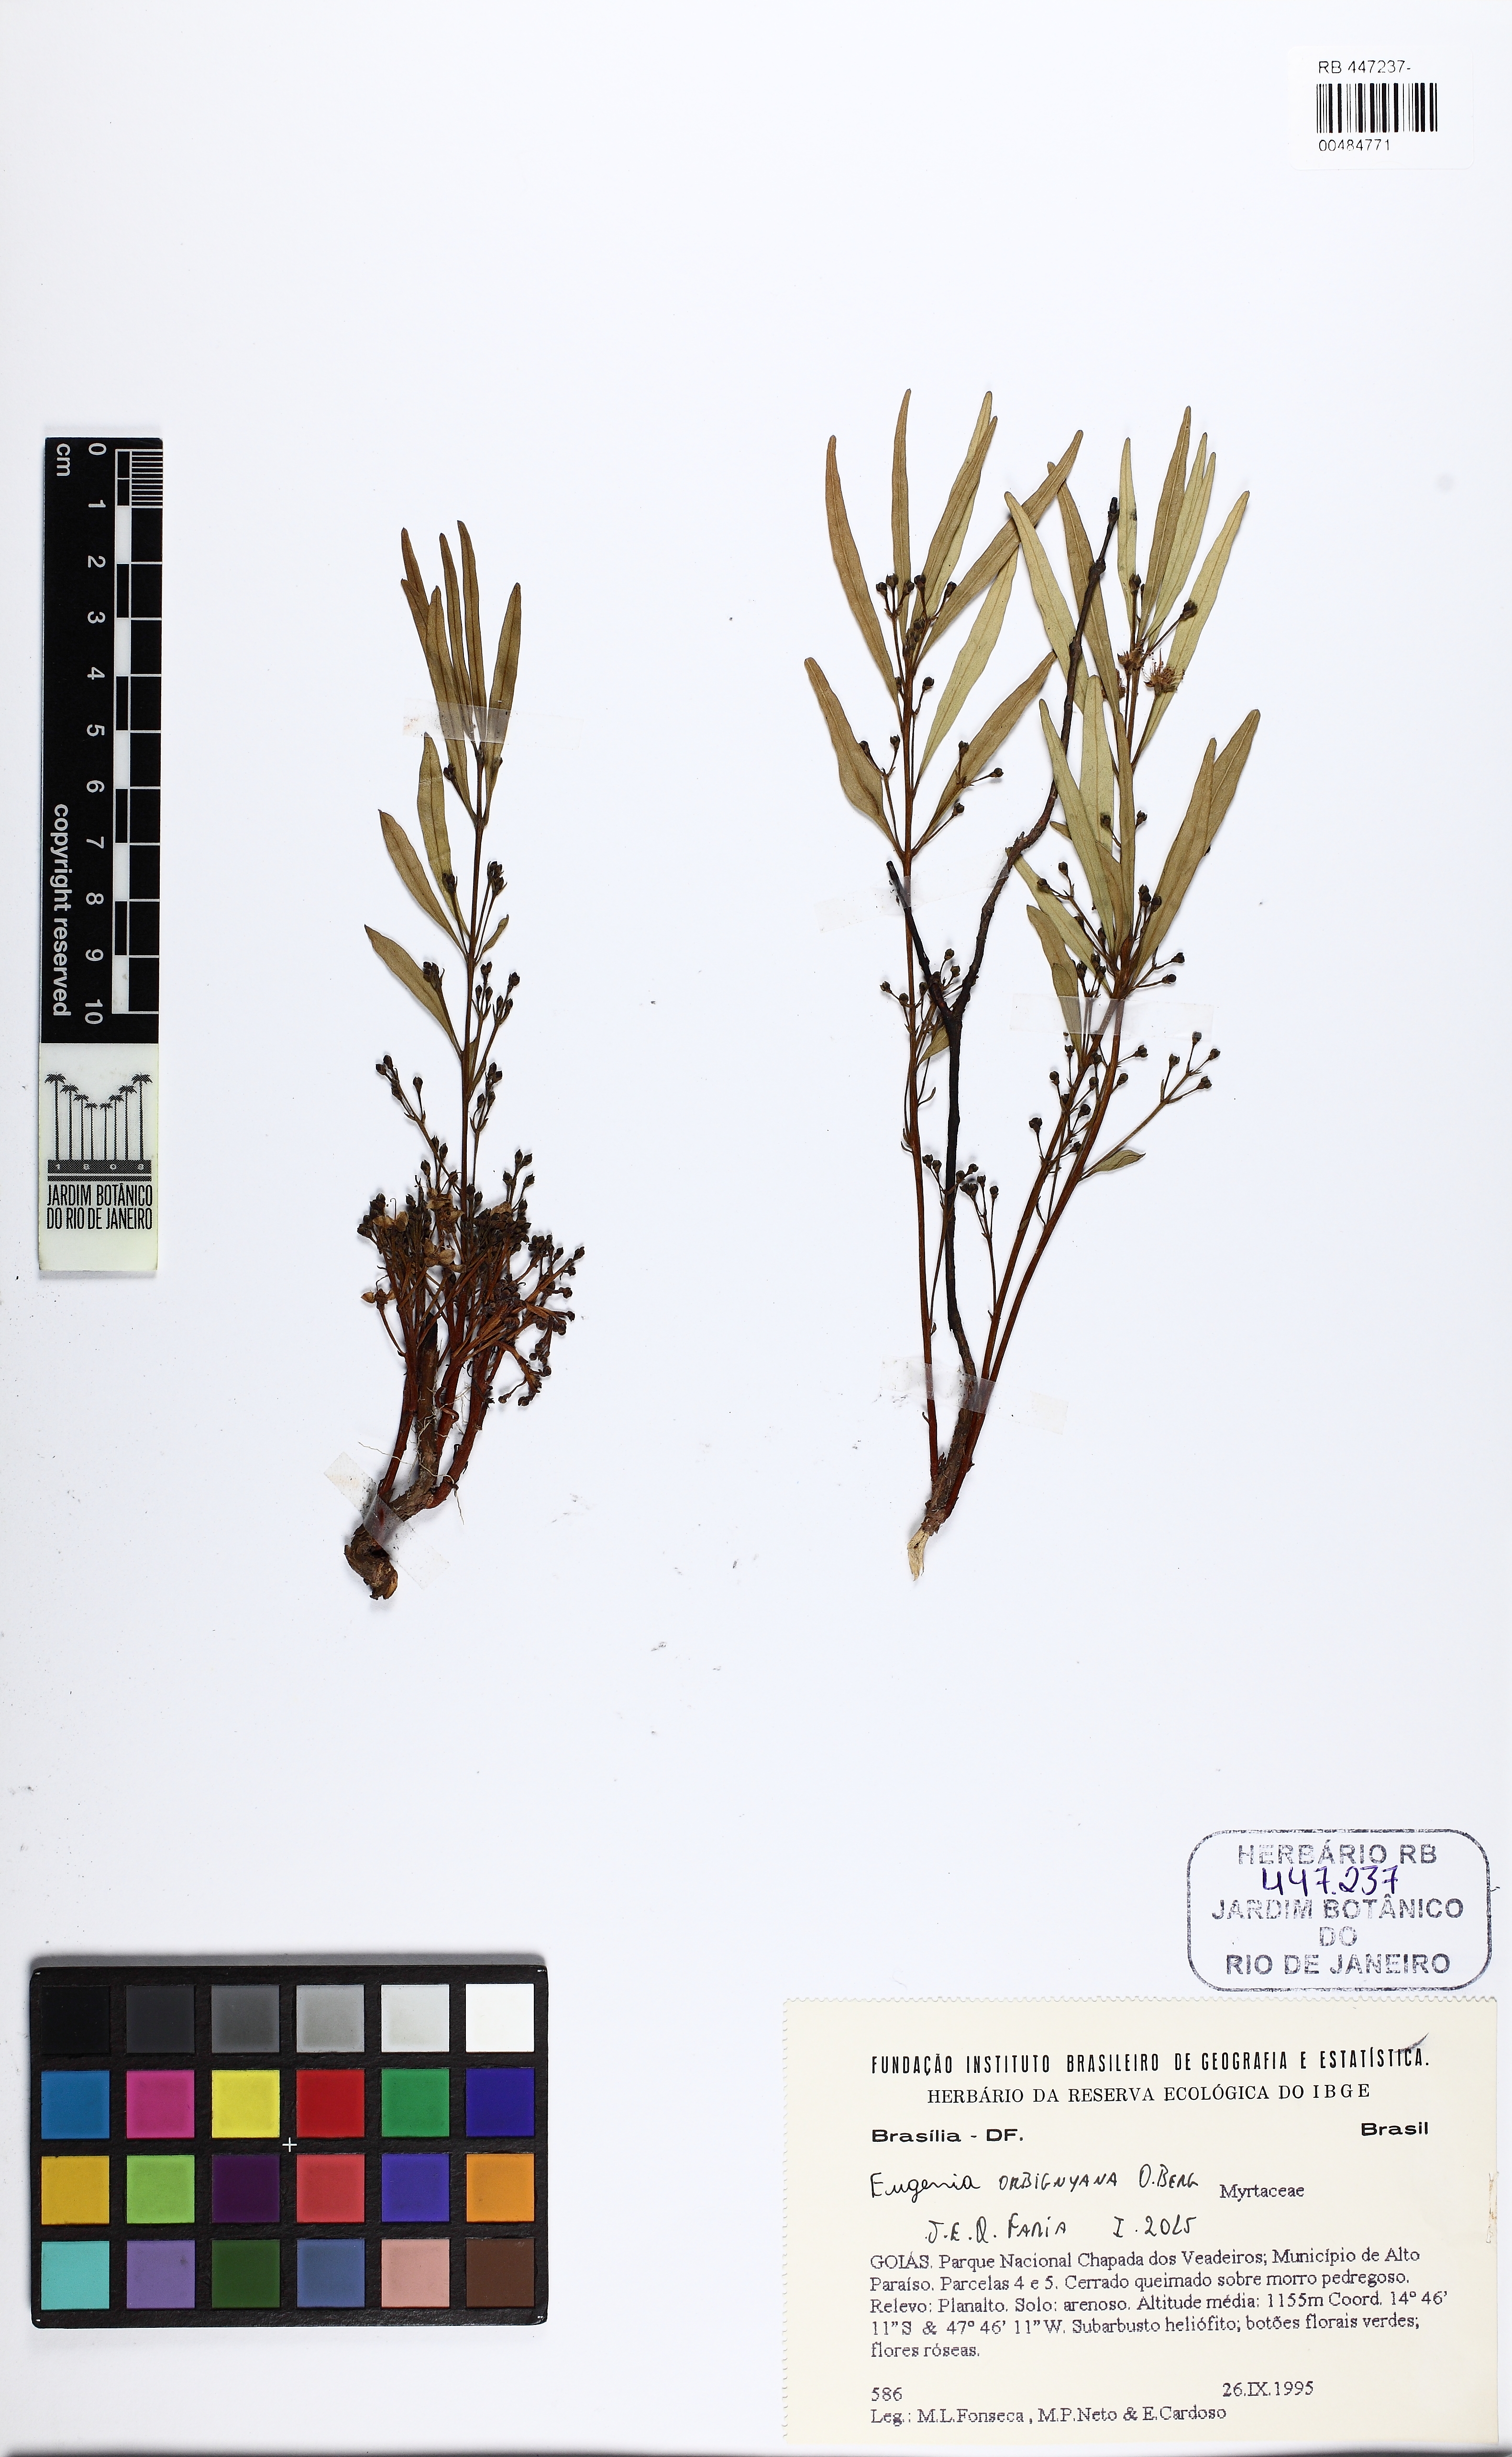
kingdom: Plantae
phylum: Tracheophyta
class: Magnoliopsida
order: Myrtales
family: Myrtaceae
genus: Eugenia
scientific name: Eugenia orbignyana
